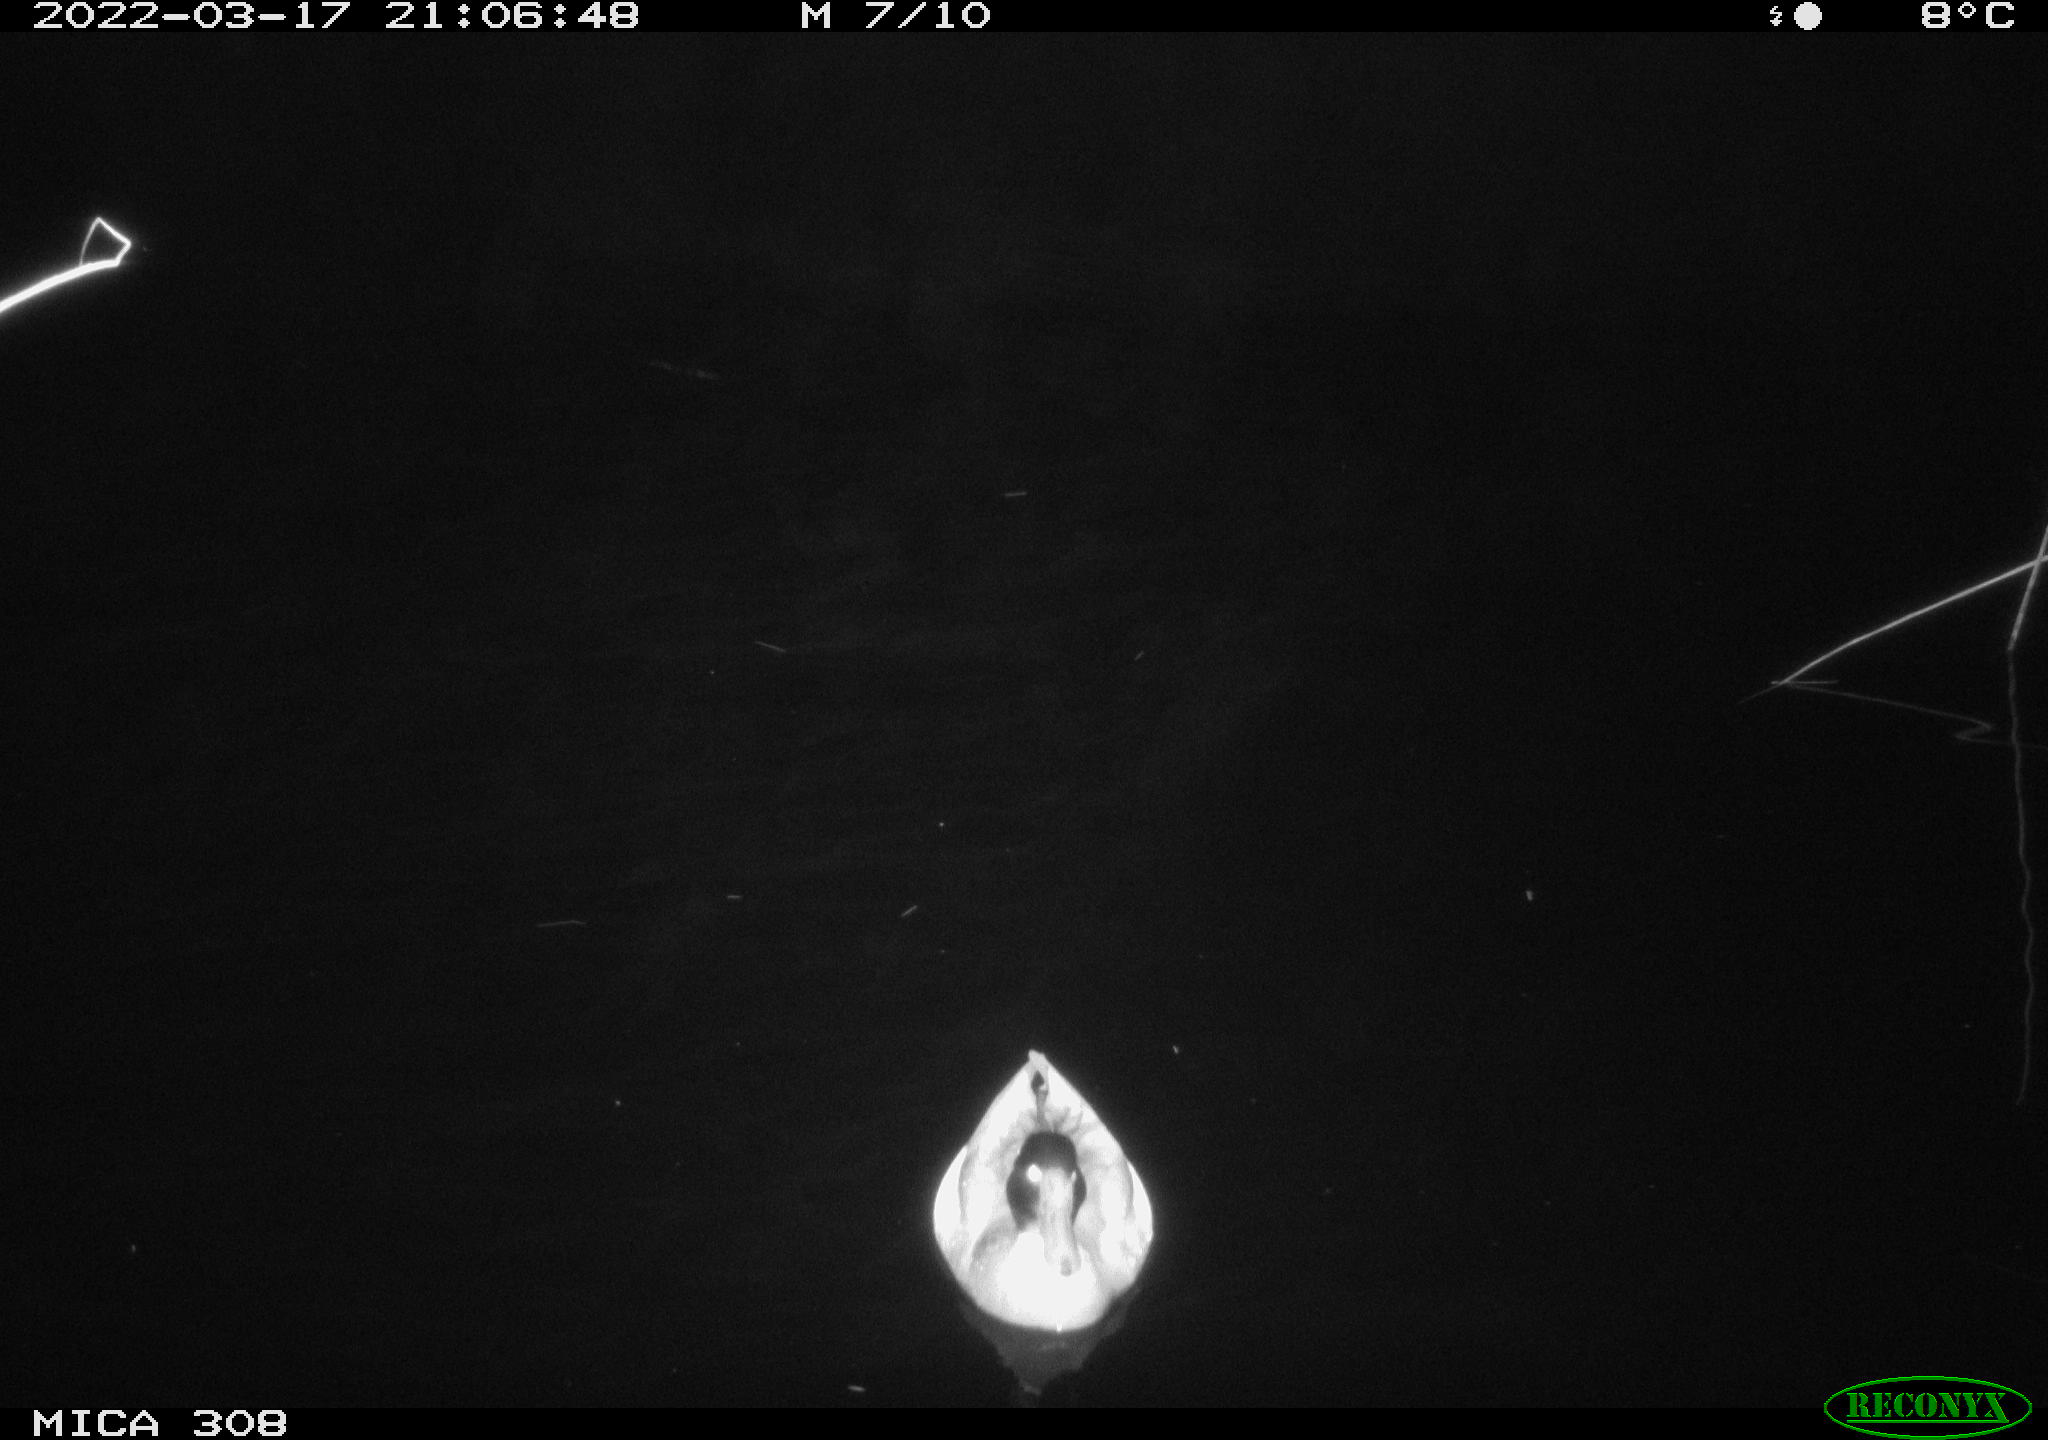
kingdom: Animalia
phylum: Chordata
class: Aves
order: Anseriformes
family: Anatidae
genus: Anas
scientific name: Anas platyrhynchos
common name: Mallard
